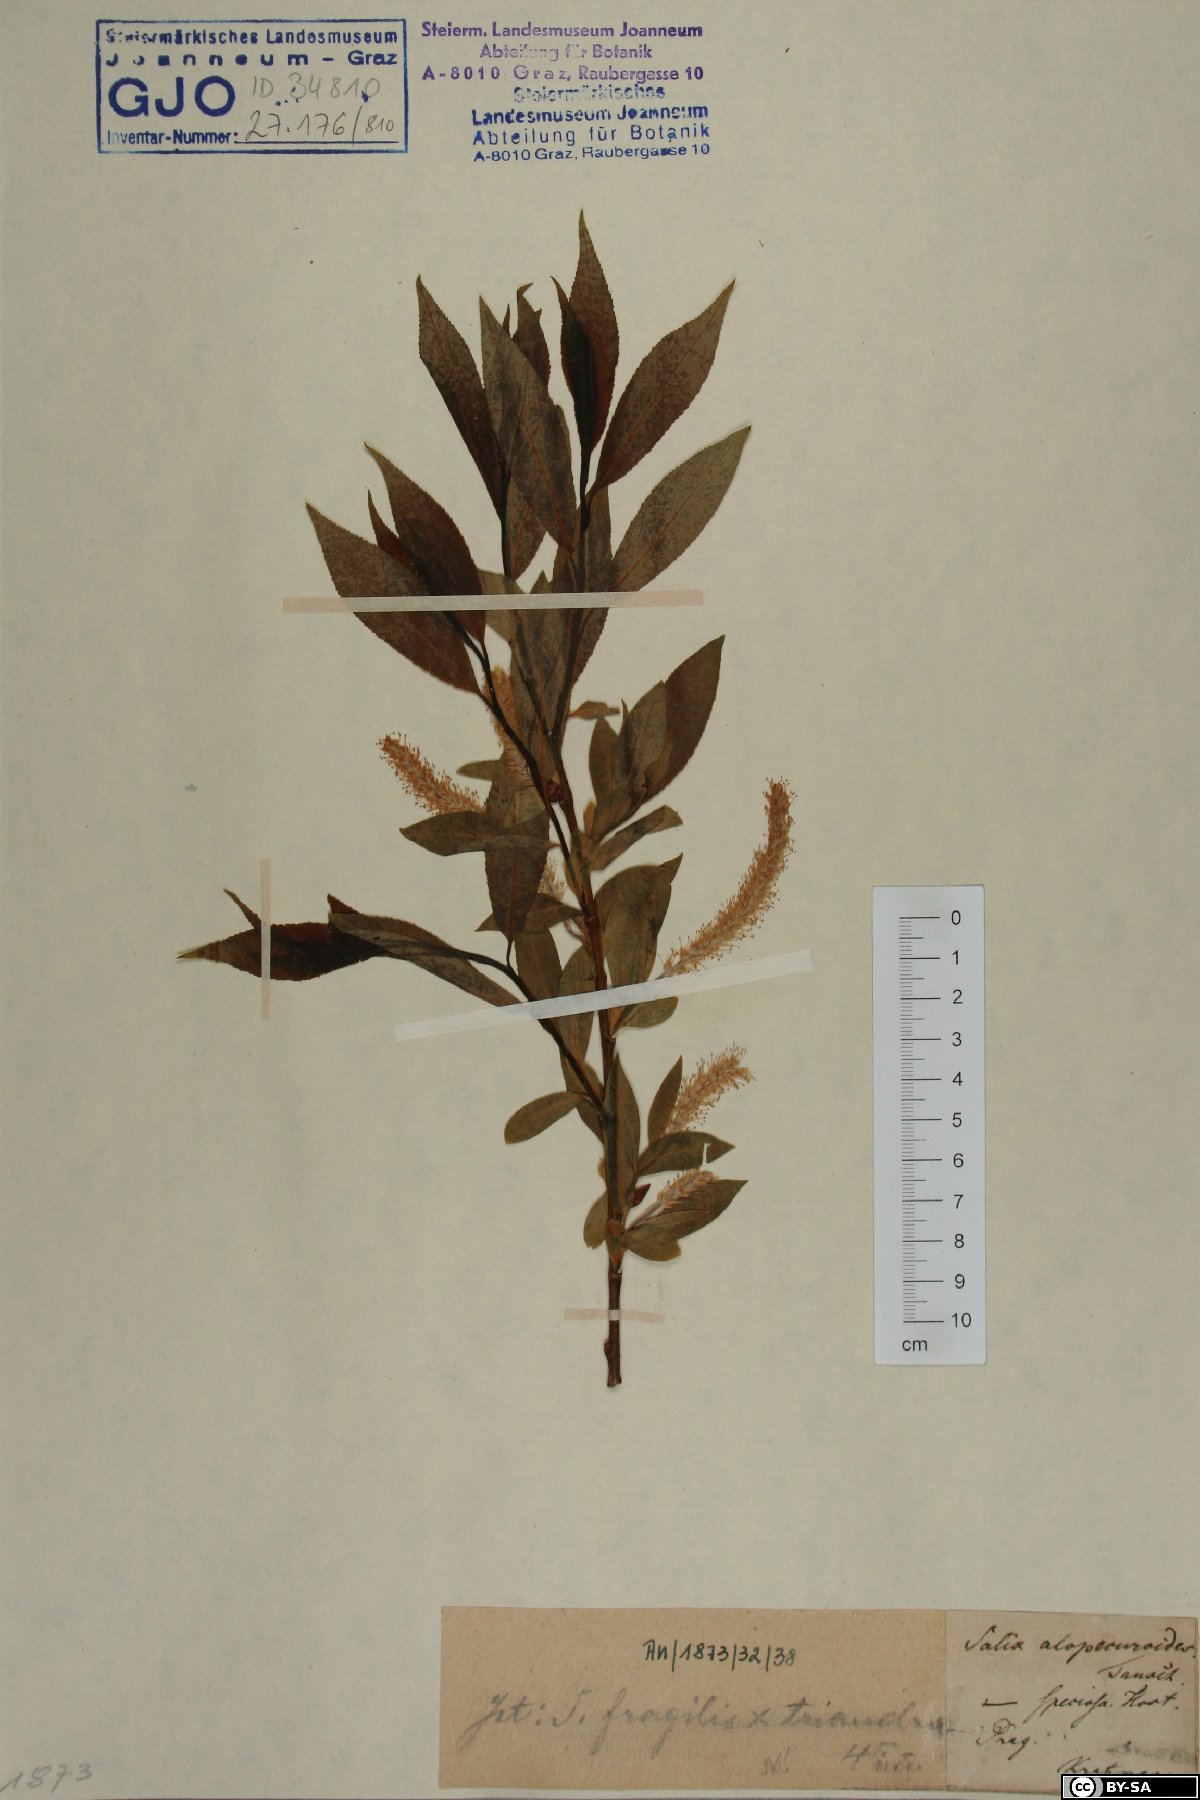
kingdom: Plantae
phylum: Tracheophyta
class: Magnoliopsida
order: Malpighiales
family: Salicaceae
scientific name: Salicaceae
